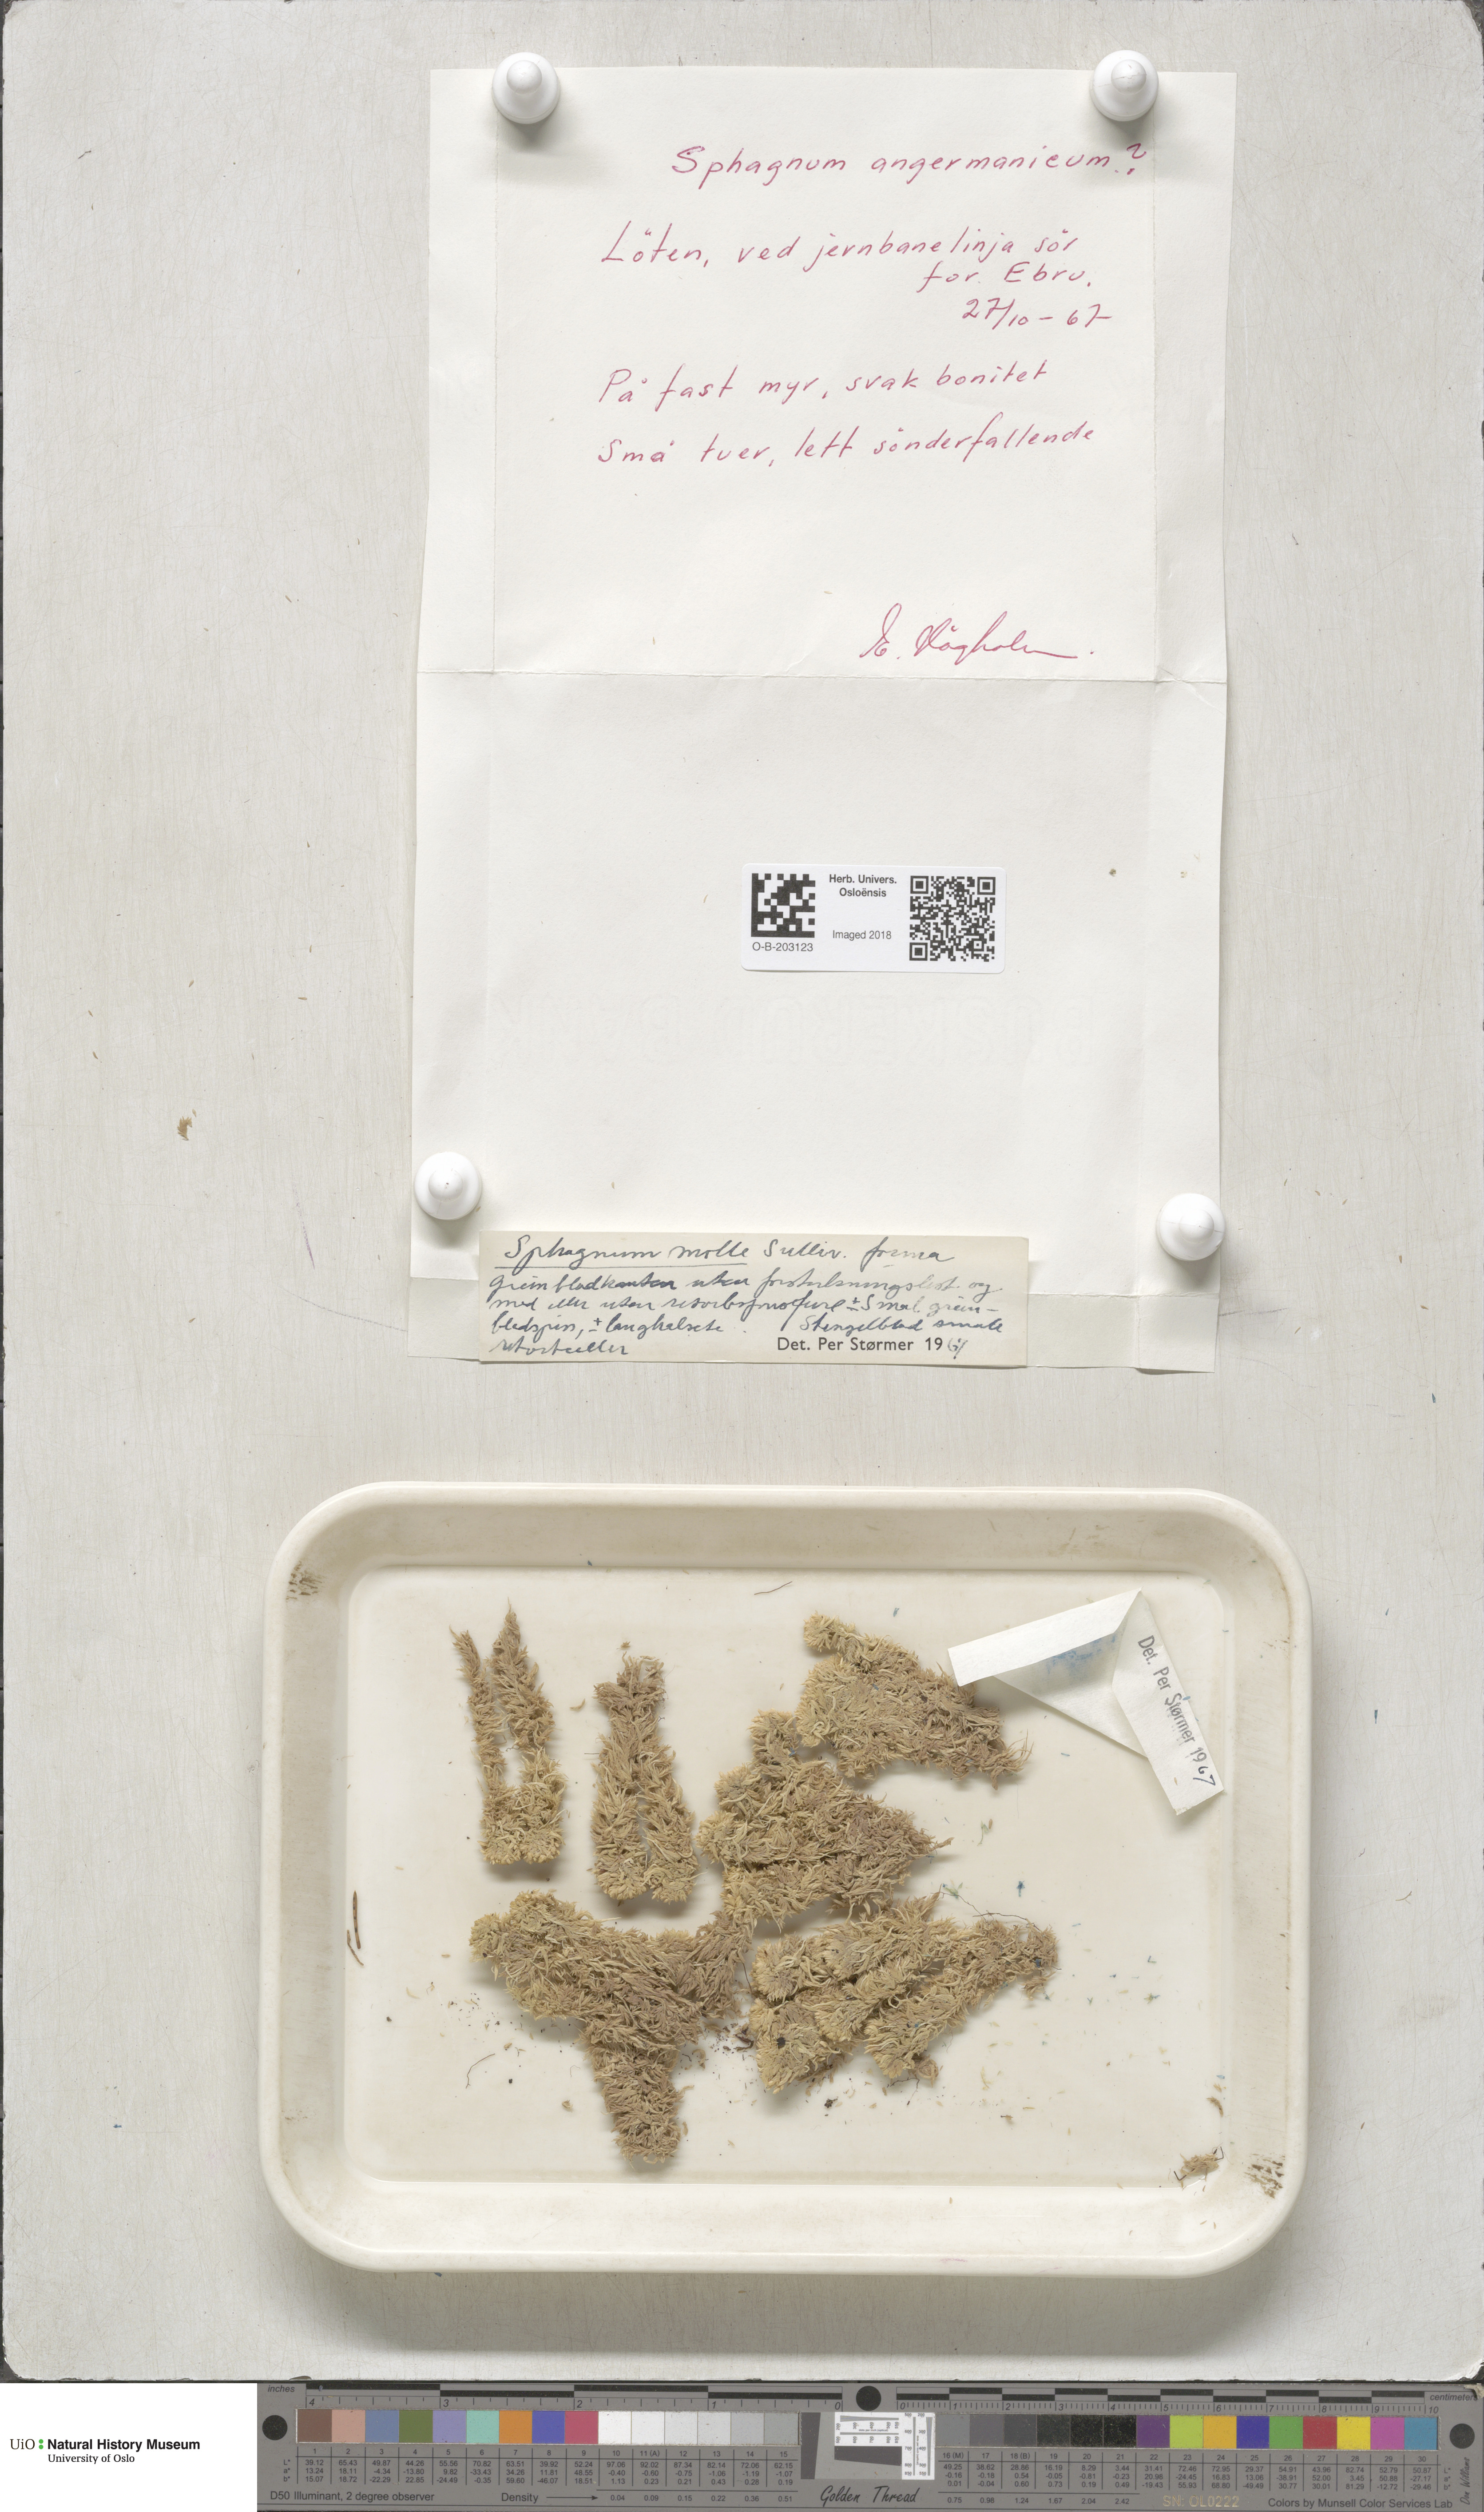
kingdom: Plantae
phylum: Bryophyta
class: Sphagnopsida
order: Sphagnales
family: Sphagnaceae
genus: Sphagnum
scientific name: Sphagnum molle
